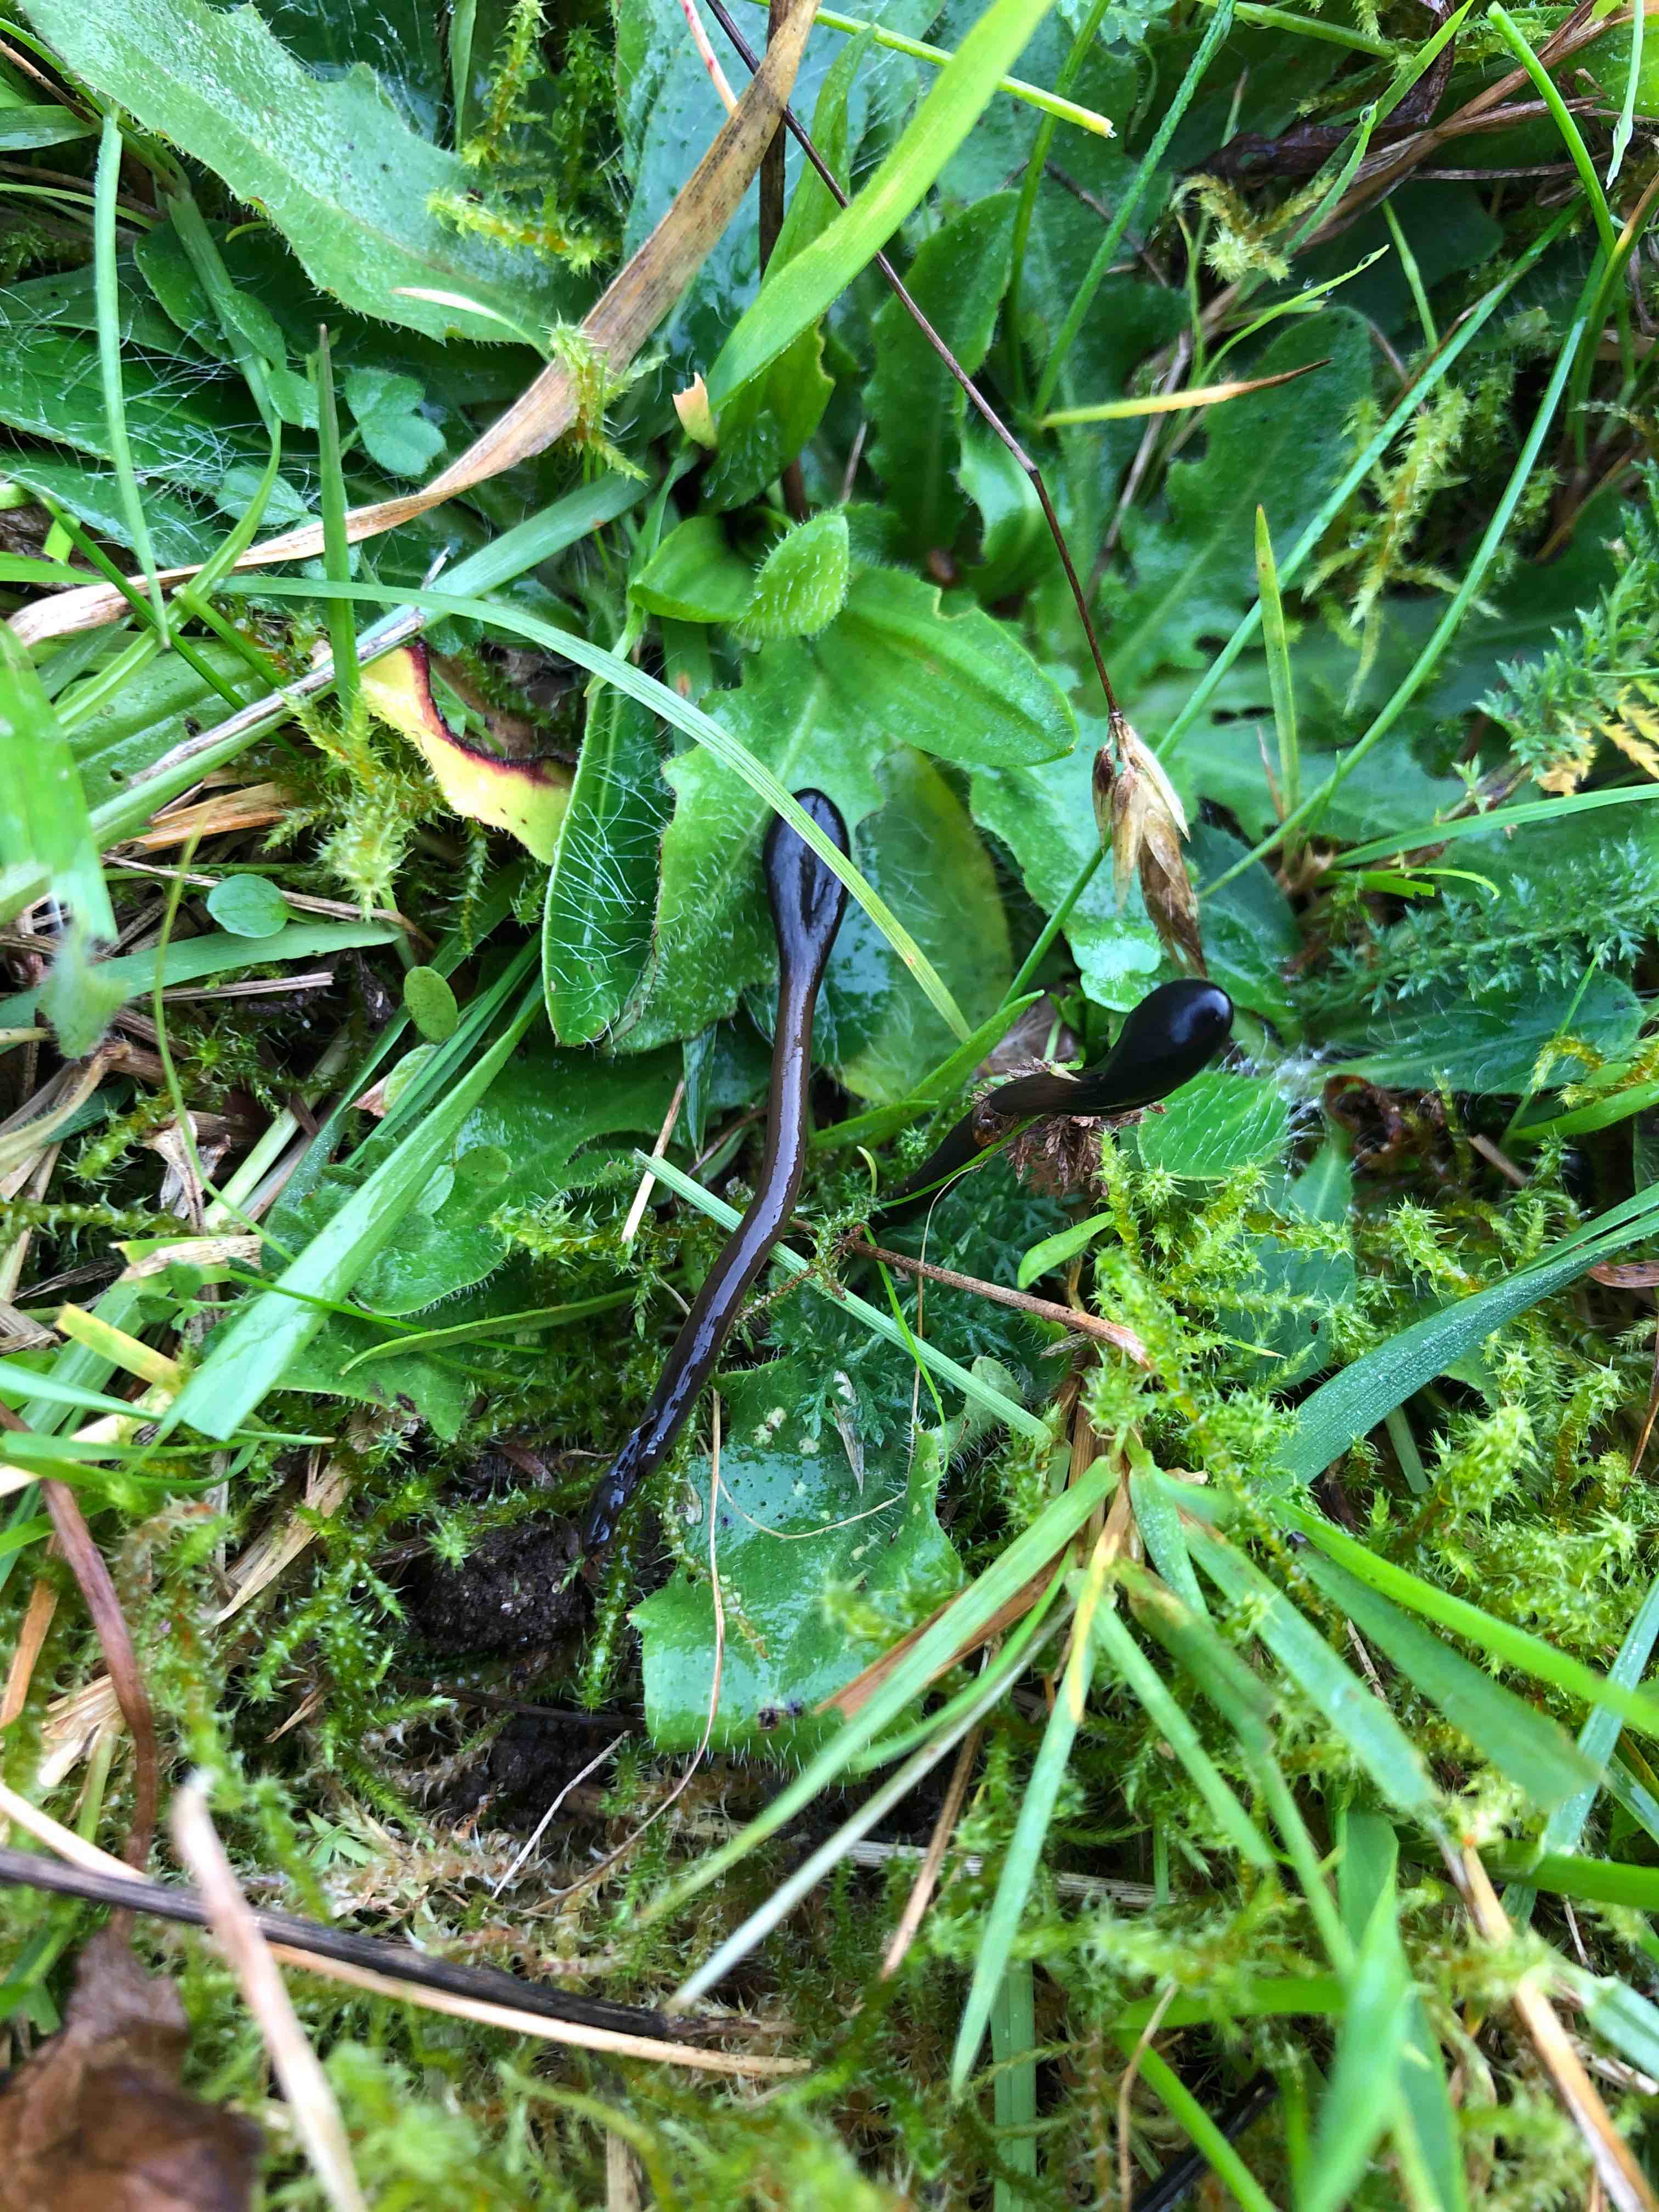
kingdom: Fungi
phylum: Ascomycota
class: Geoglossomycetes
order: Geoglossales
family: Geoglossaceae
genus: Glutinoglossum
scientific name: Glutinoglossum glutinosum
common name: slimet jordtunge
